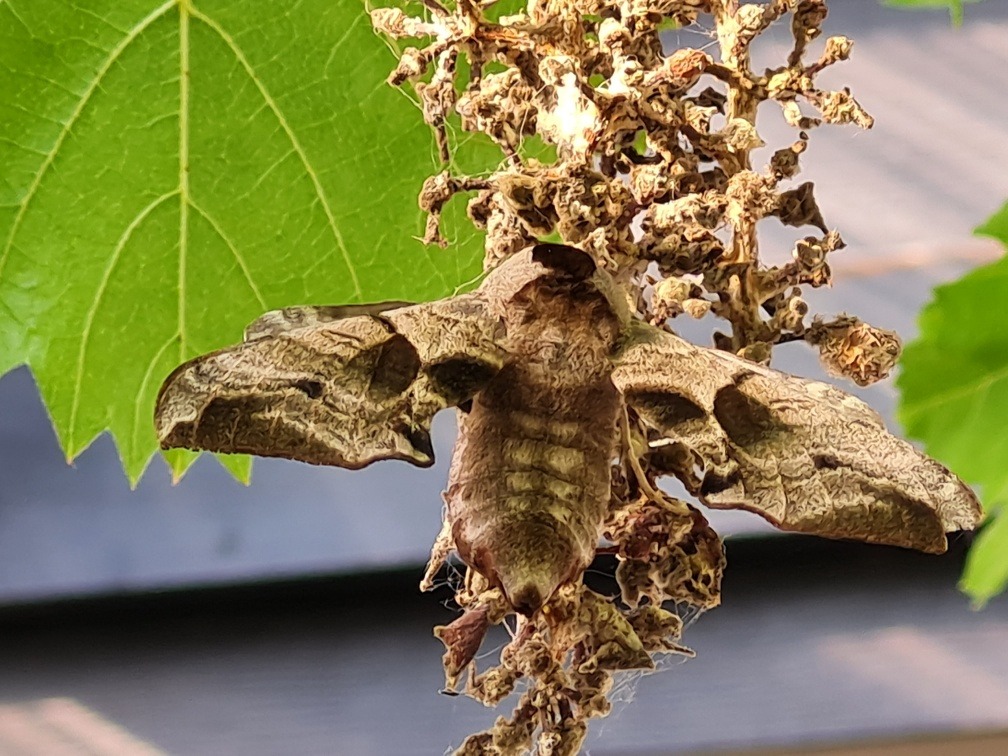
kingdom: Animalia
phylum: Arthropoda
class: Insecta
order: Lepidoptera
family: Sphingidae
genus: Smerinthus
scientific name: Smerinthus ocellata
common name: Aftenpåfugleøje
